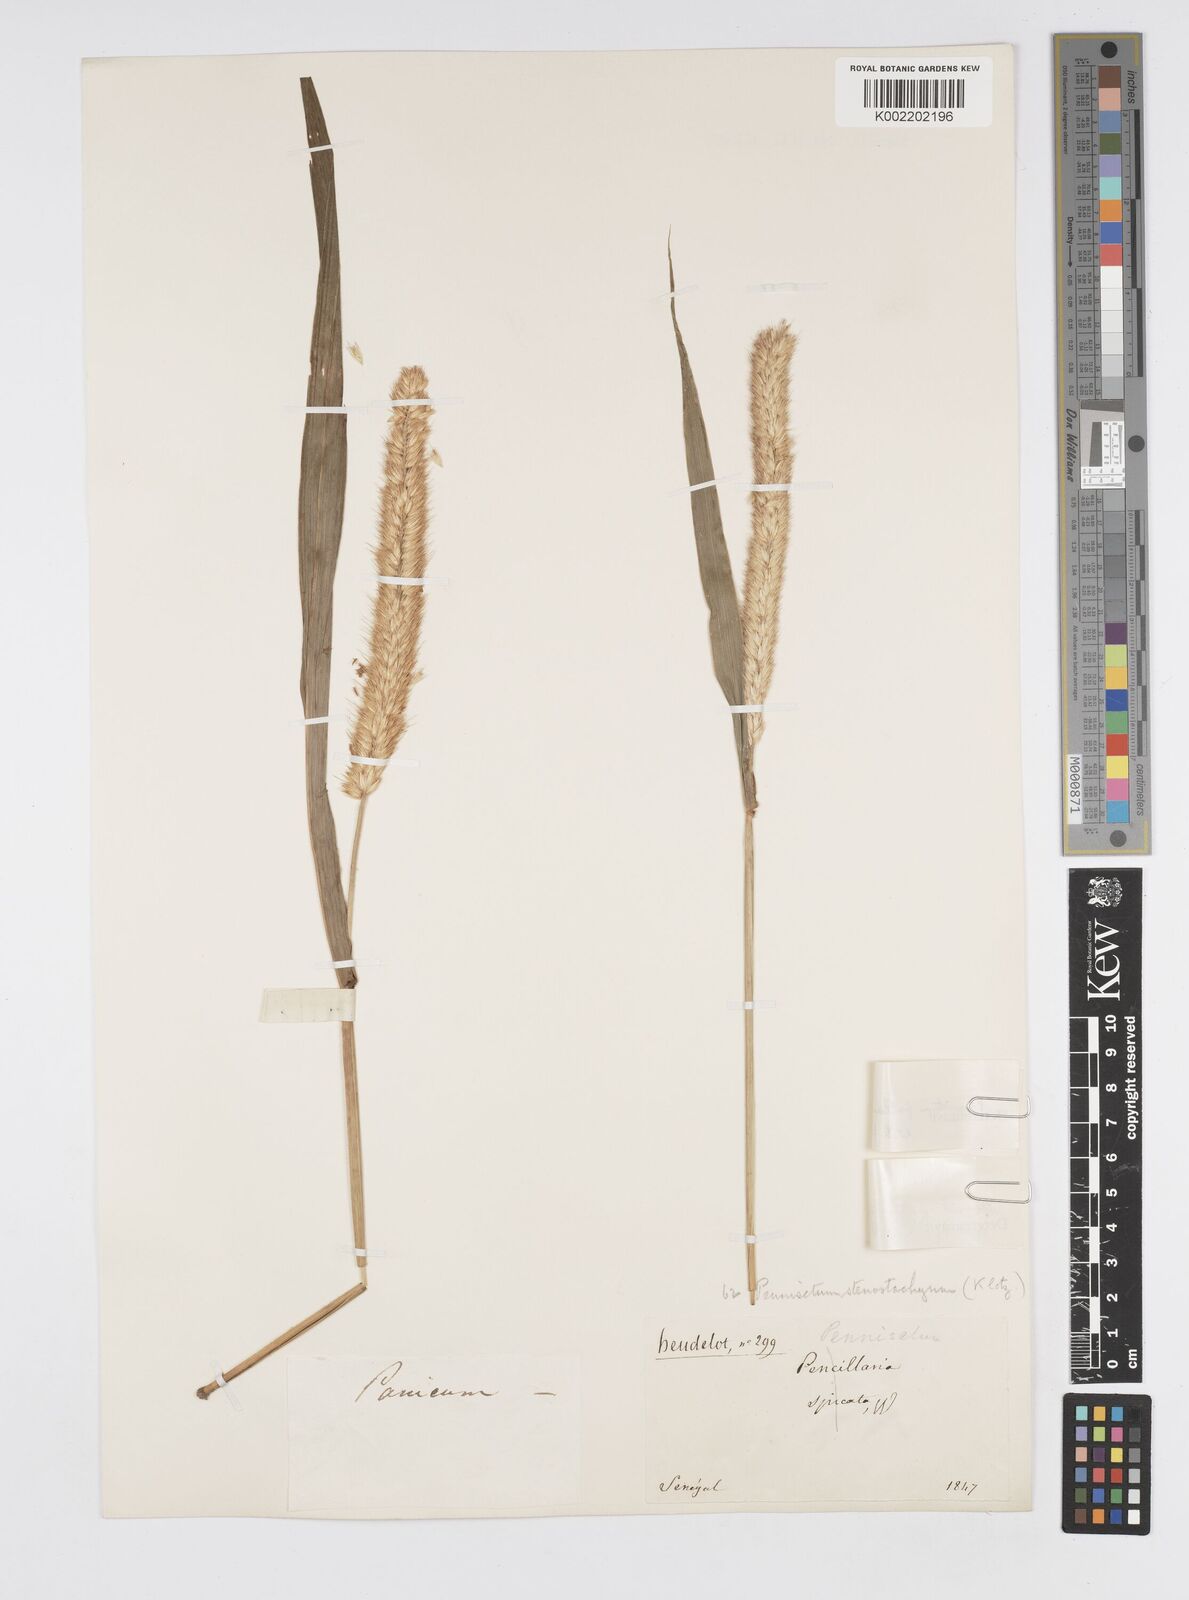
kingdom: Plantae
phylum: Tracheophyta
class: Liliopsida
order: Poales
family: Poaceae
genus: Cenchrus
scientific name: Cenchrus violaceus
